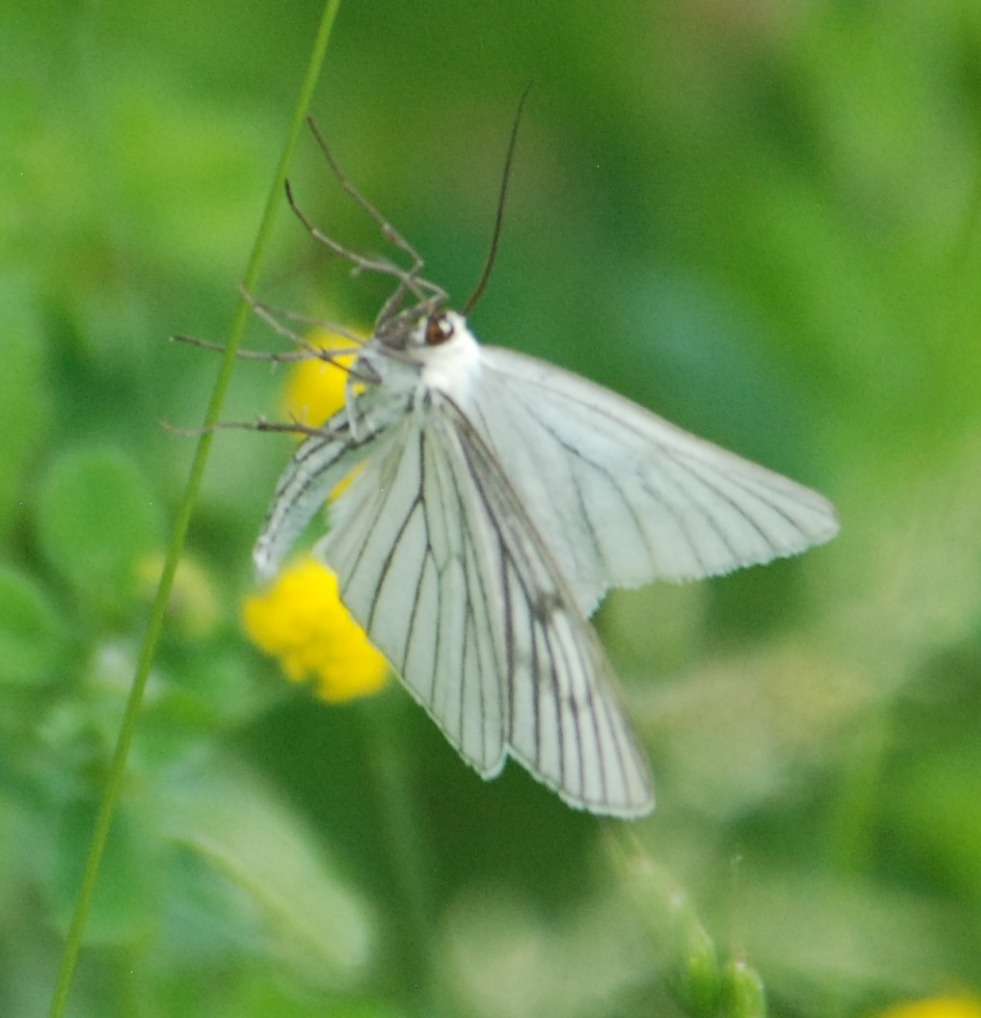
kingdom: Animalia
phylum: Arthropoda
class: Insecta
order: Lepidoptera
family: Geometridae
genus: Siona
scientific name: Siona lineata
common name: Hvidvingemåler
